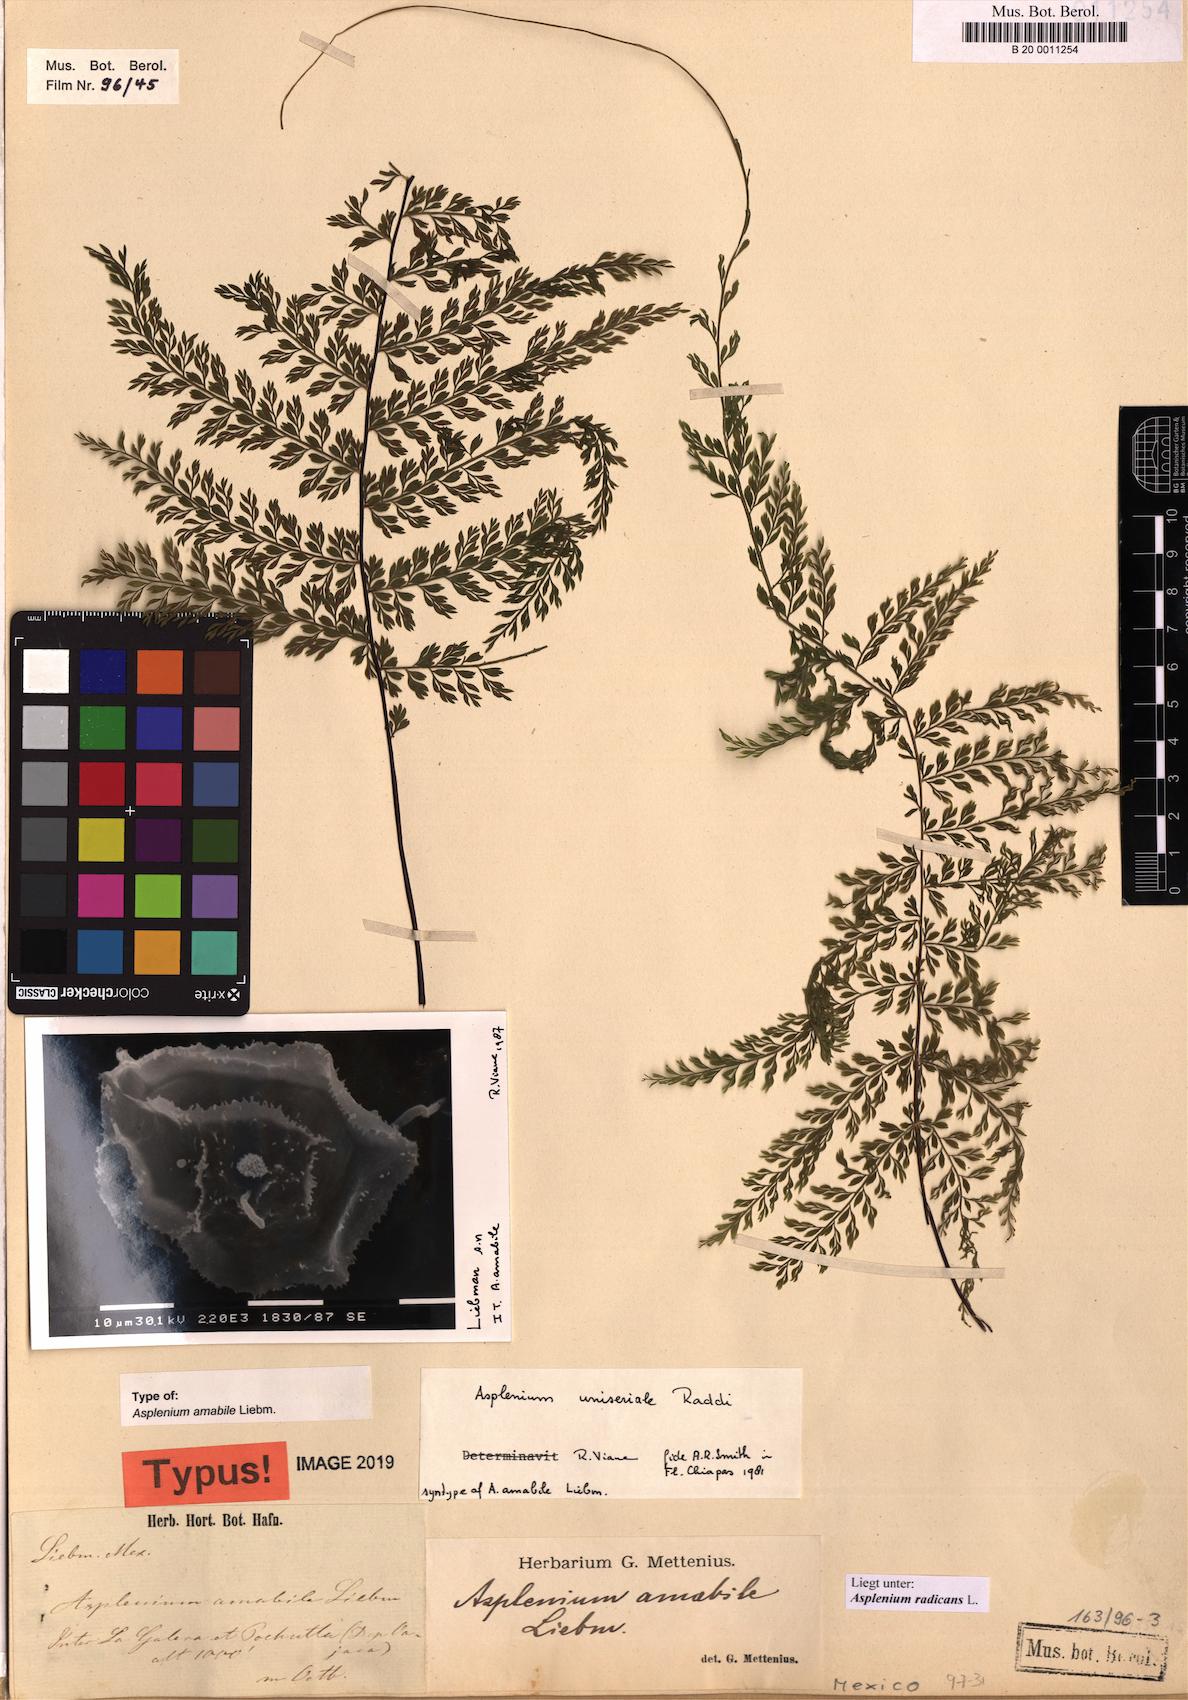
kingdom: Plantae
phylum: Tracheophyta
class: Polypodiopsida
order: Polypodiales
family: Aspleniaceae
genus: Asplenium
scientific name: Asplenium radicans
